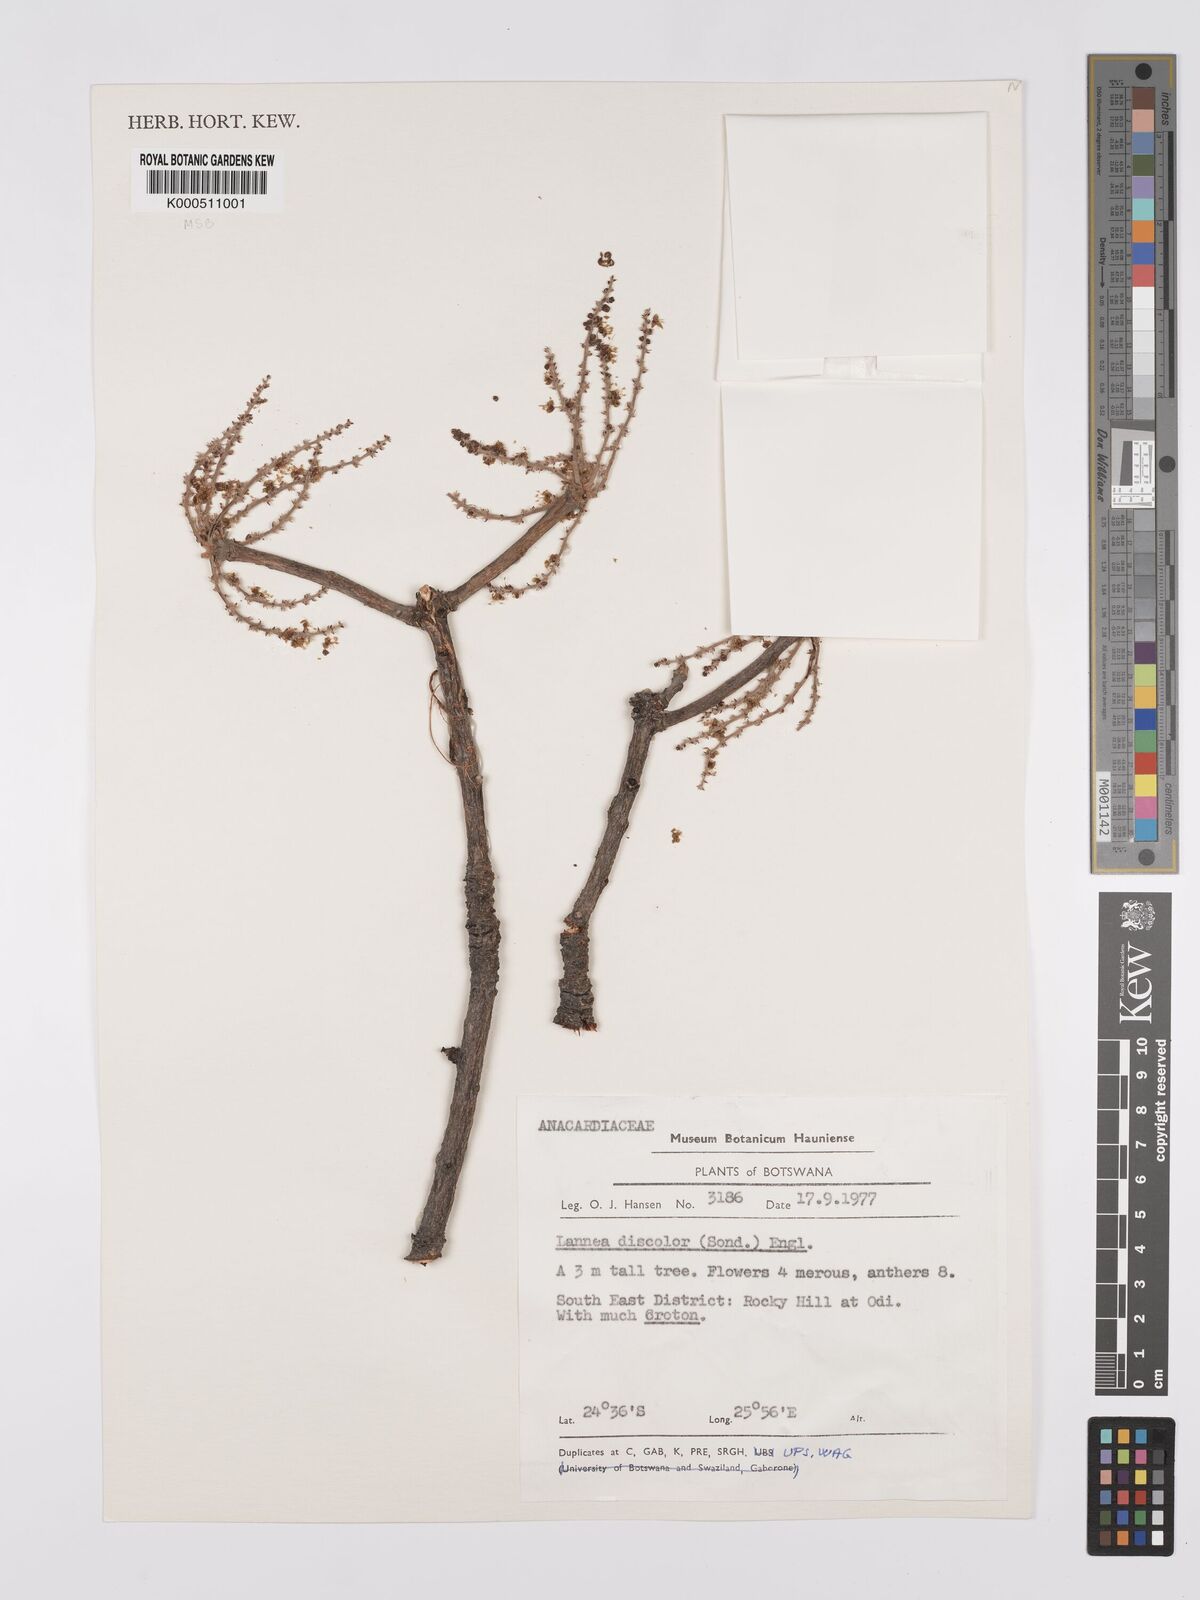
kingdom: Plantae
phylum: Tracheophyta
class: Magnoliopsida
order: Sapindales
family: Anacardiaceae
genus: Lannea
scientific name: Lannea discolor
